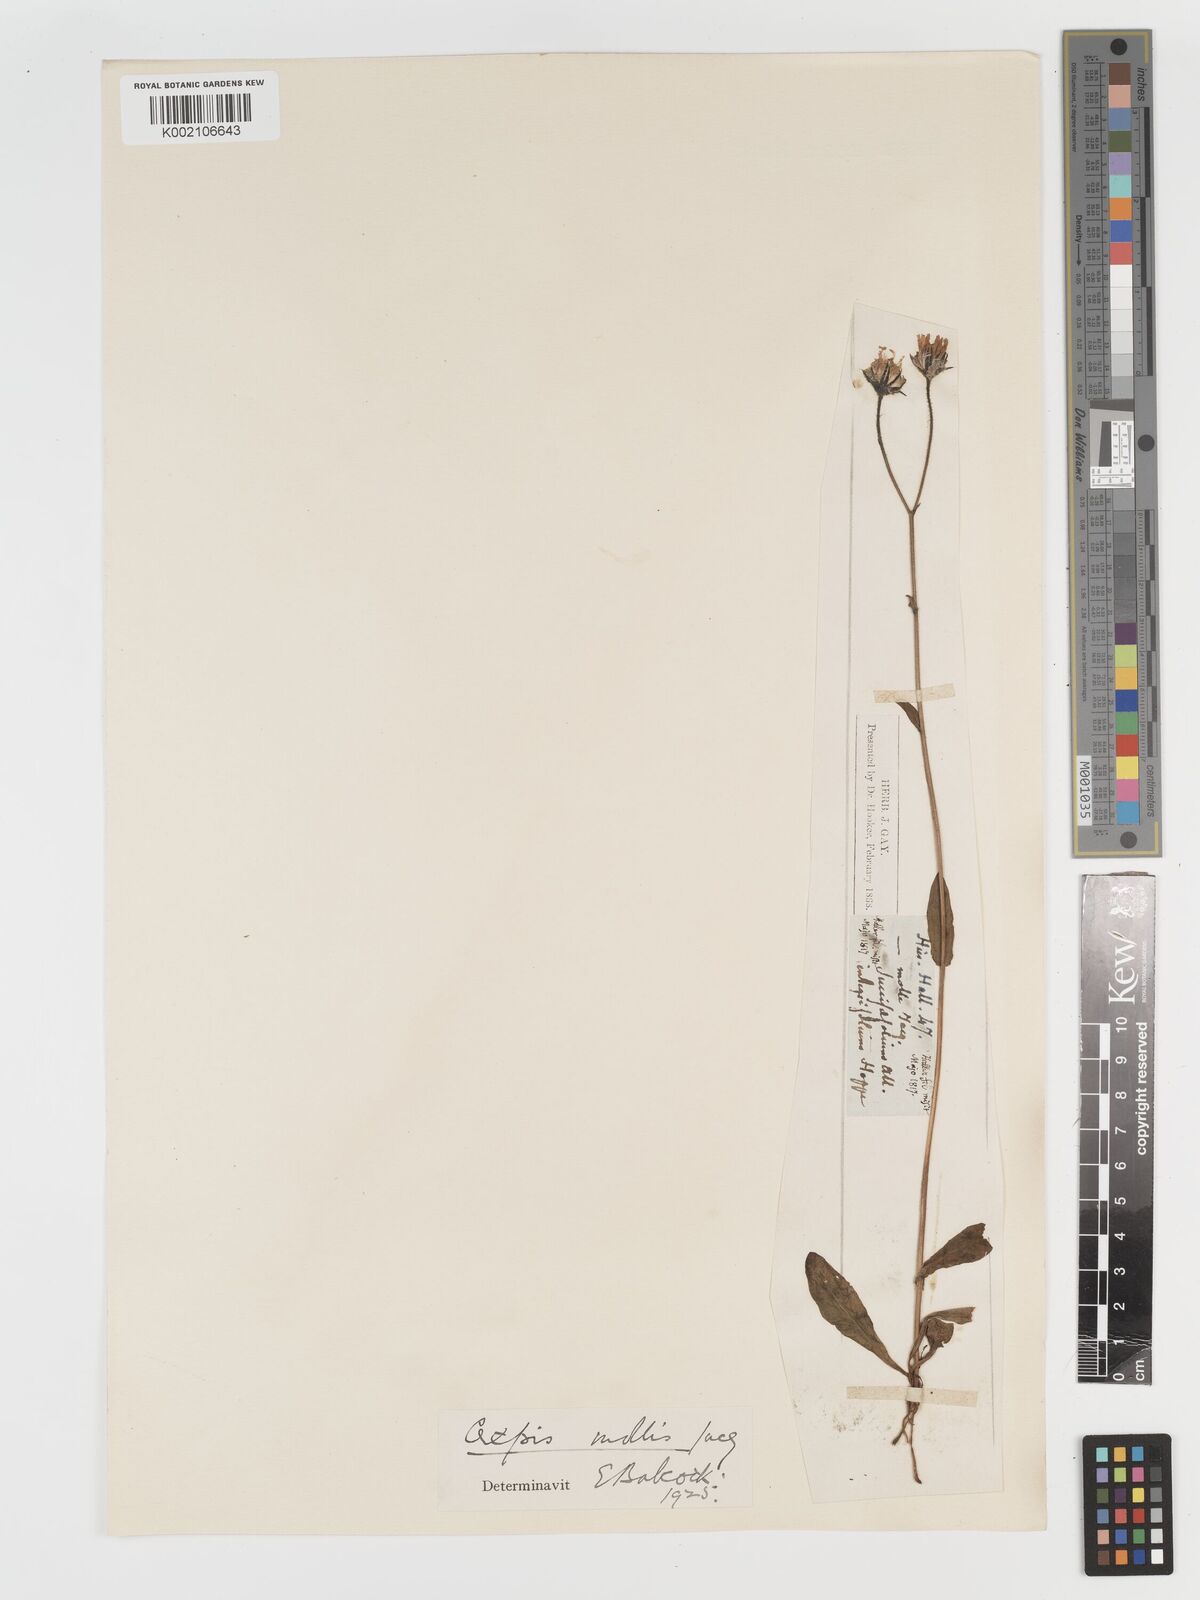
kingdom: Plantae
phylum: Tracheophyta
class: Magnoliopsida
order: Asterales
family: Asteraceae
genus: Crepis
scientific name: Crepis mollis
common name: Northern hawk's-beard
